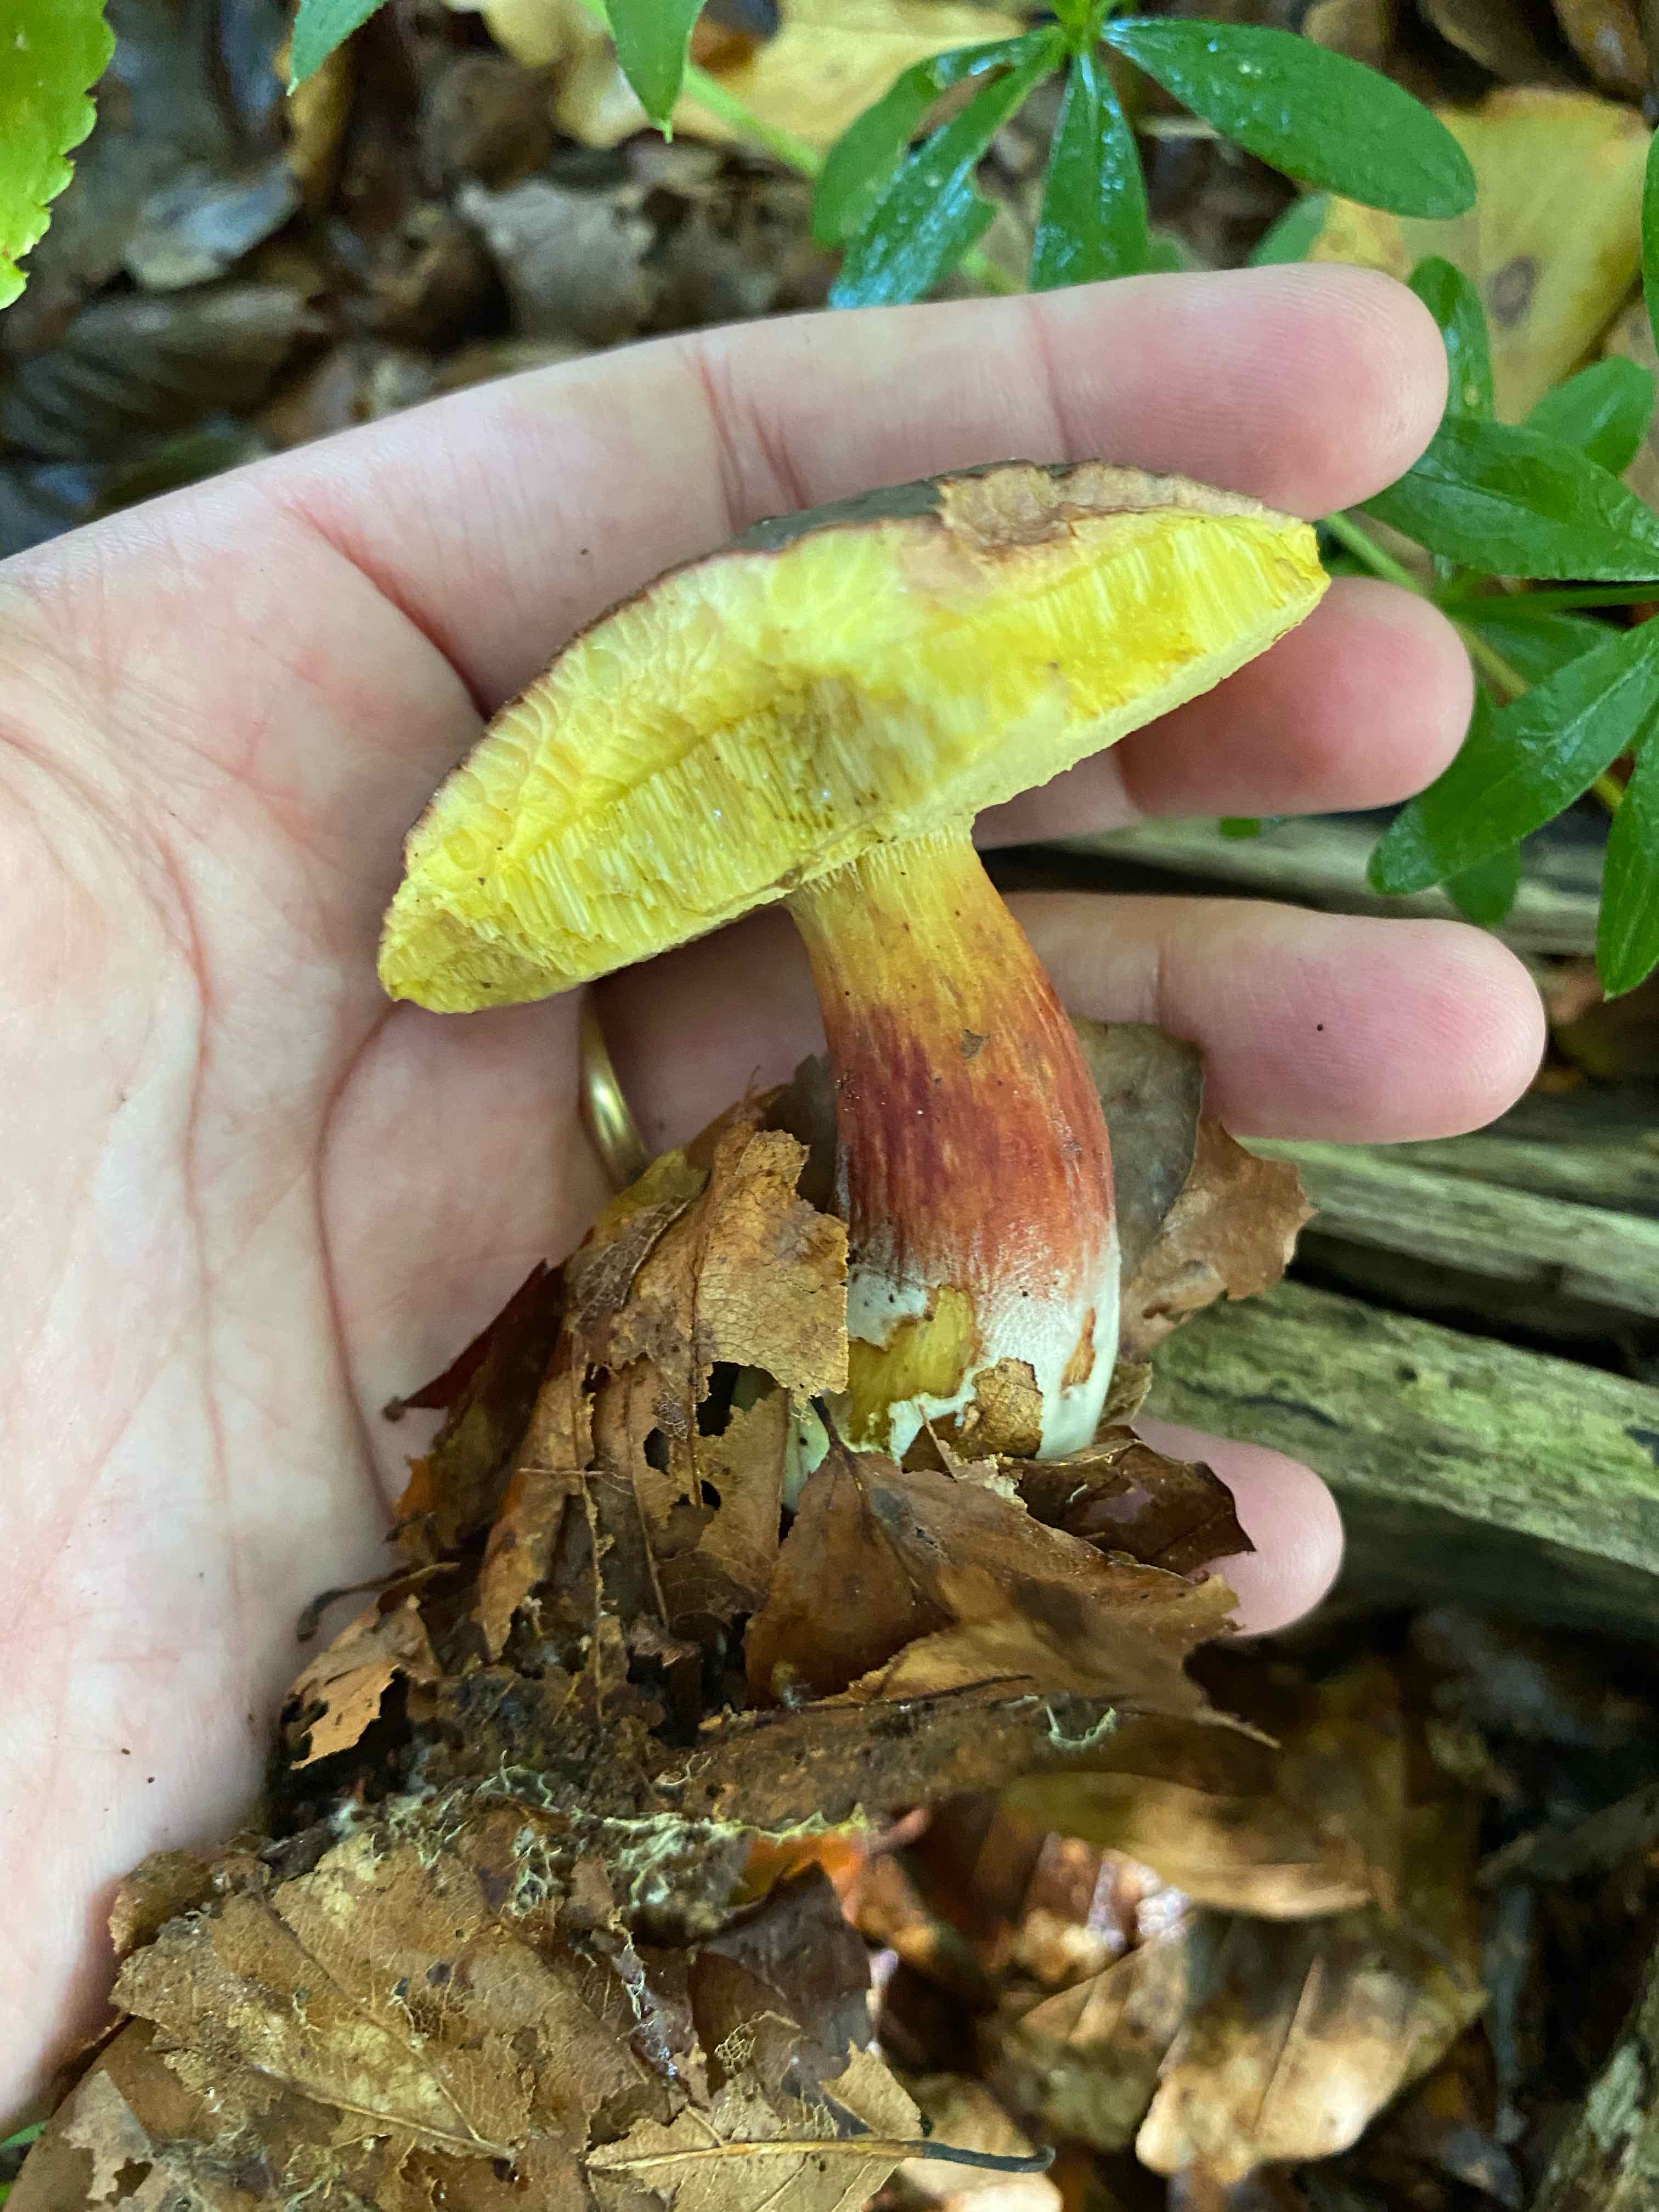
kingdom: Fungi
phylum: Basidiomycota
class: Agaricomycetes
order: Boletales
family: Boletaceae
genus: Xerocomellus
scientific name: Xerocomellus pruinatus
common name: dugget rørhat
